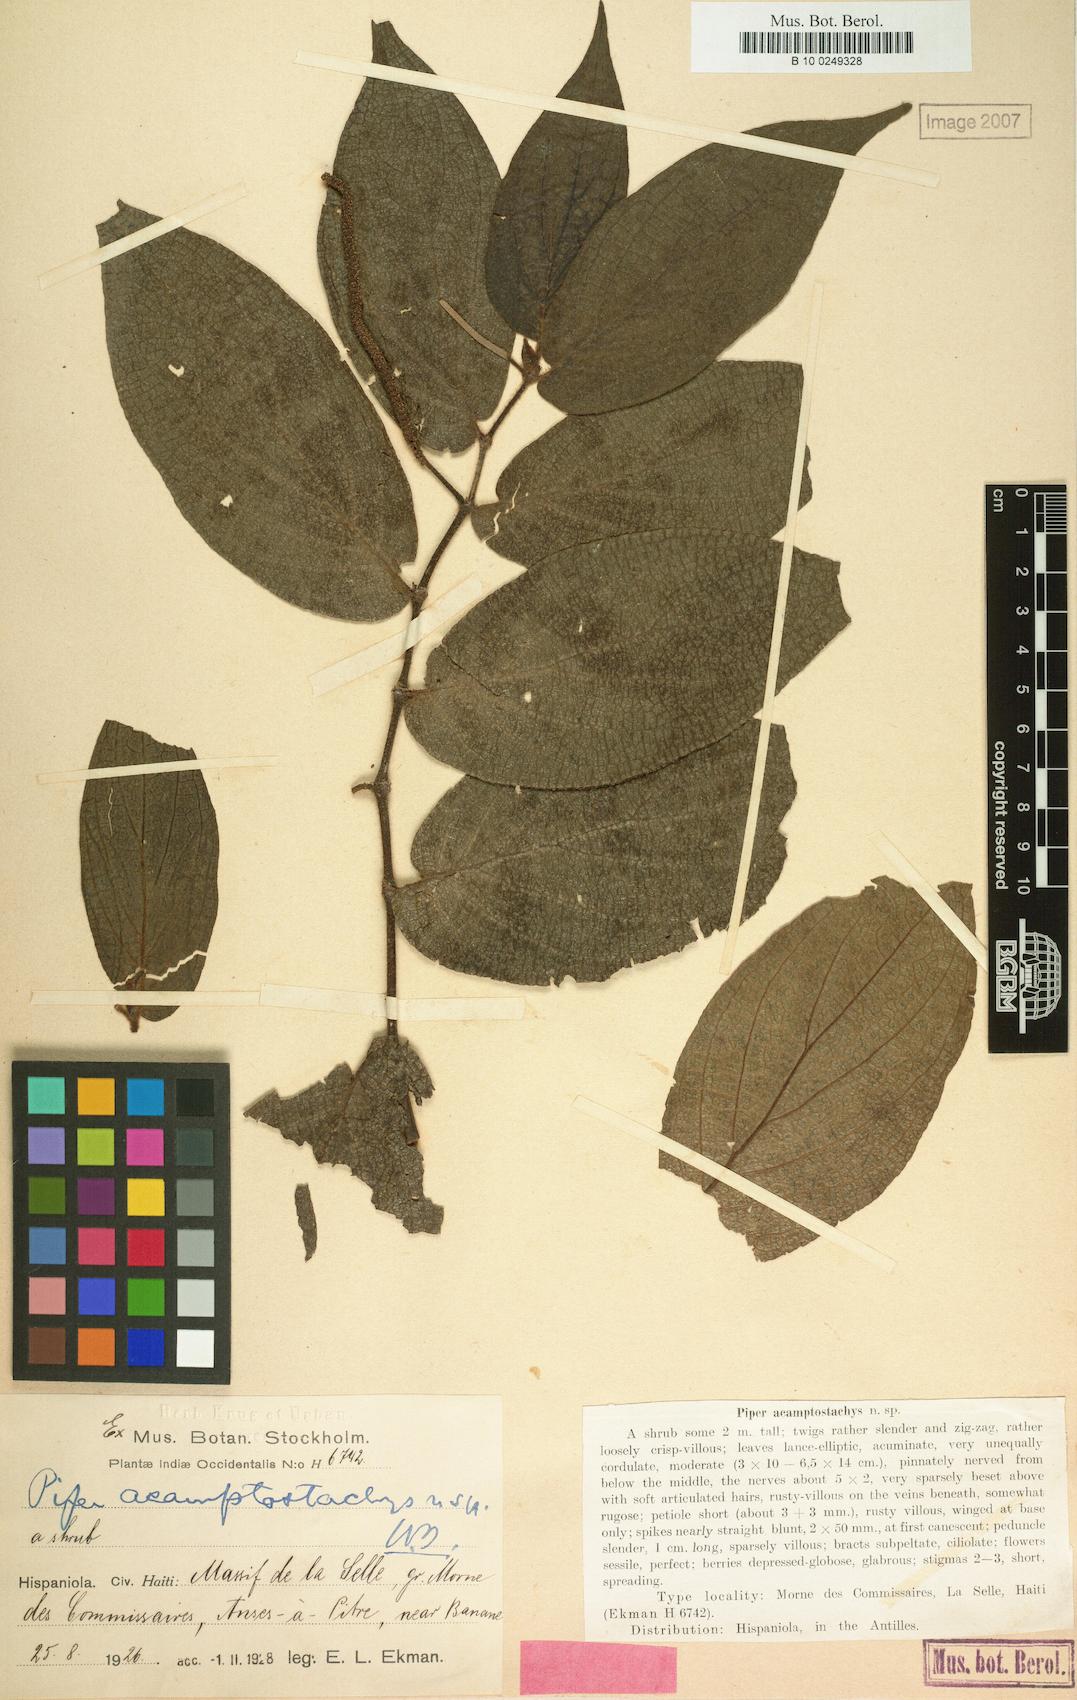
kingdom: Plantae
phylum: Tracheophyta
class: Magnoliopsida
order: Piperales
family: Piperaceae
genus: Piper
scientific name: Piper vanderveldeanum
